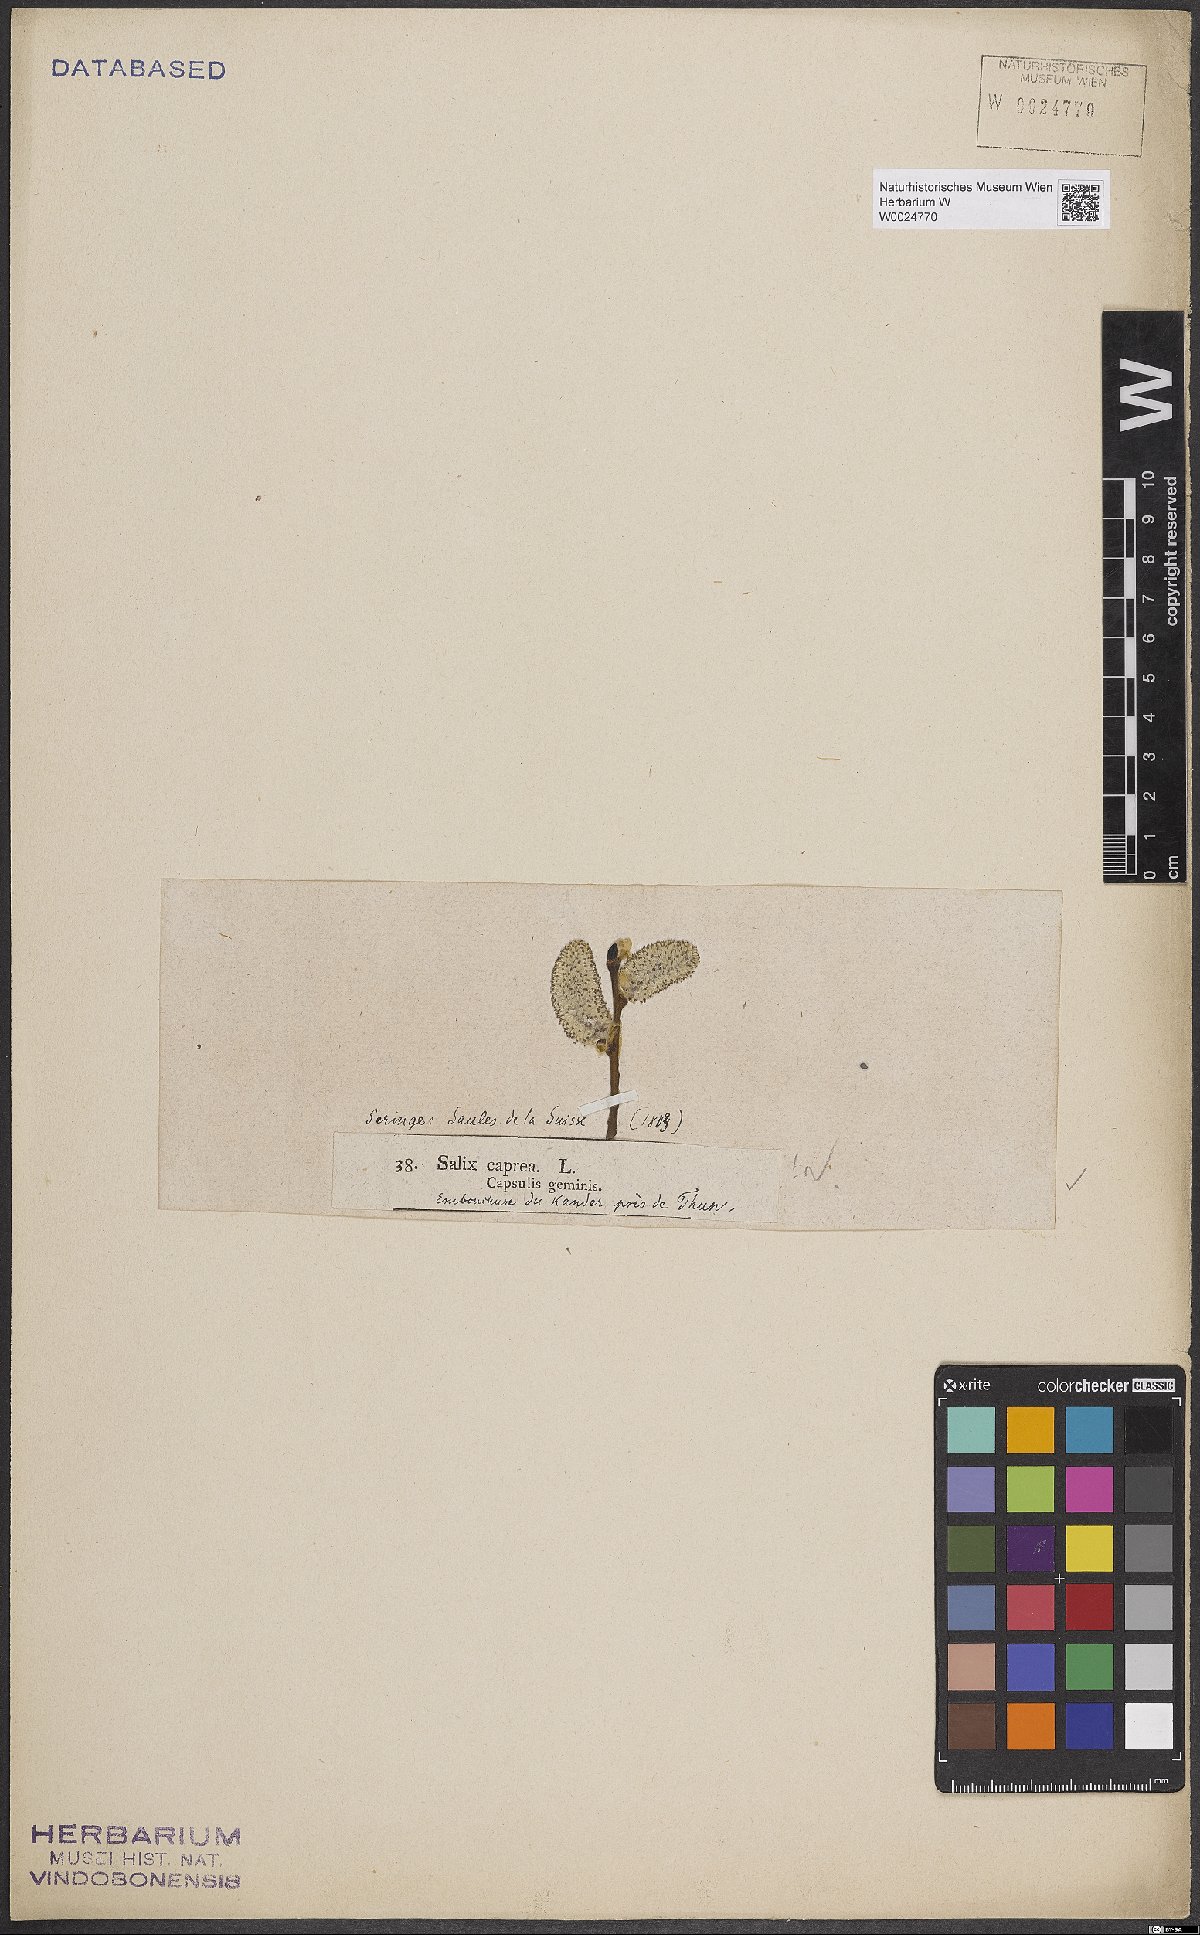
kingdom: Plantae
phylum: Tracheophyta
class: Magnoliopsida
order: Malpighiales
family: Salicaceae
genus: Salix
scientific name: Salix caprea
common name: Goat willow
